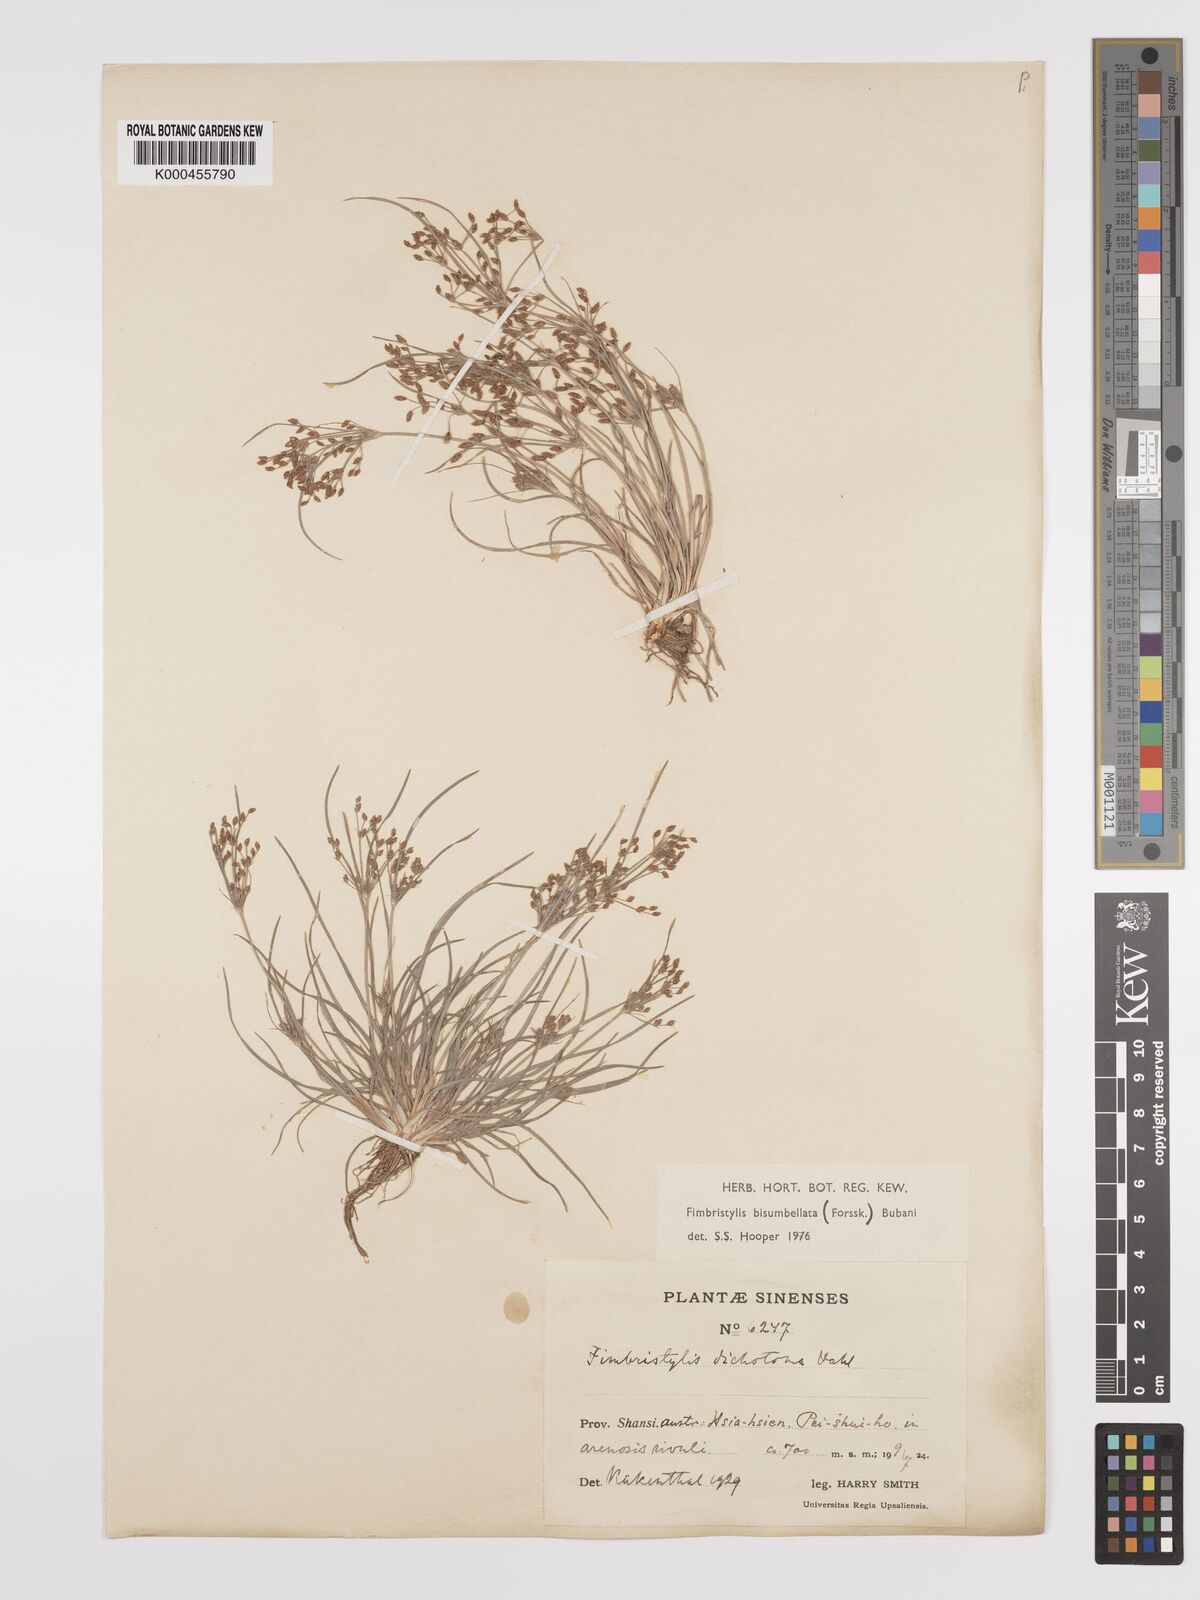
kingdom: Plantae
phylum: Tracheophyta
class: Liliopsida
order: Poales
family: Cyperaceae
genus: Fimbristylis
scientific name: Fimbristylis dichotoma
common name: Forked fimbry
